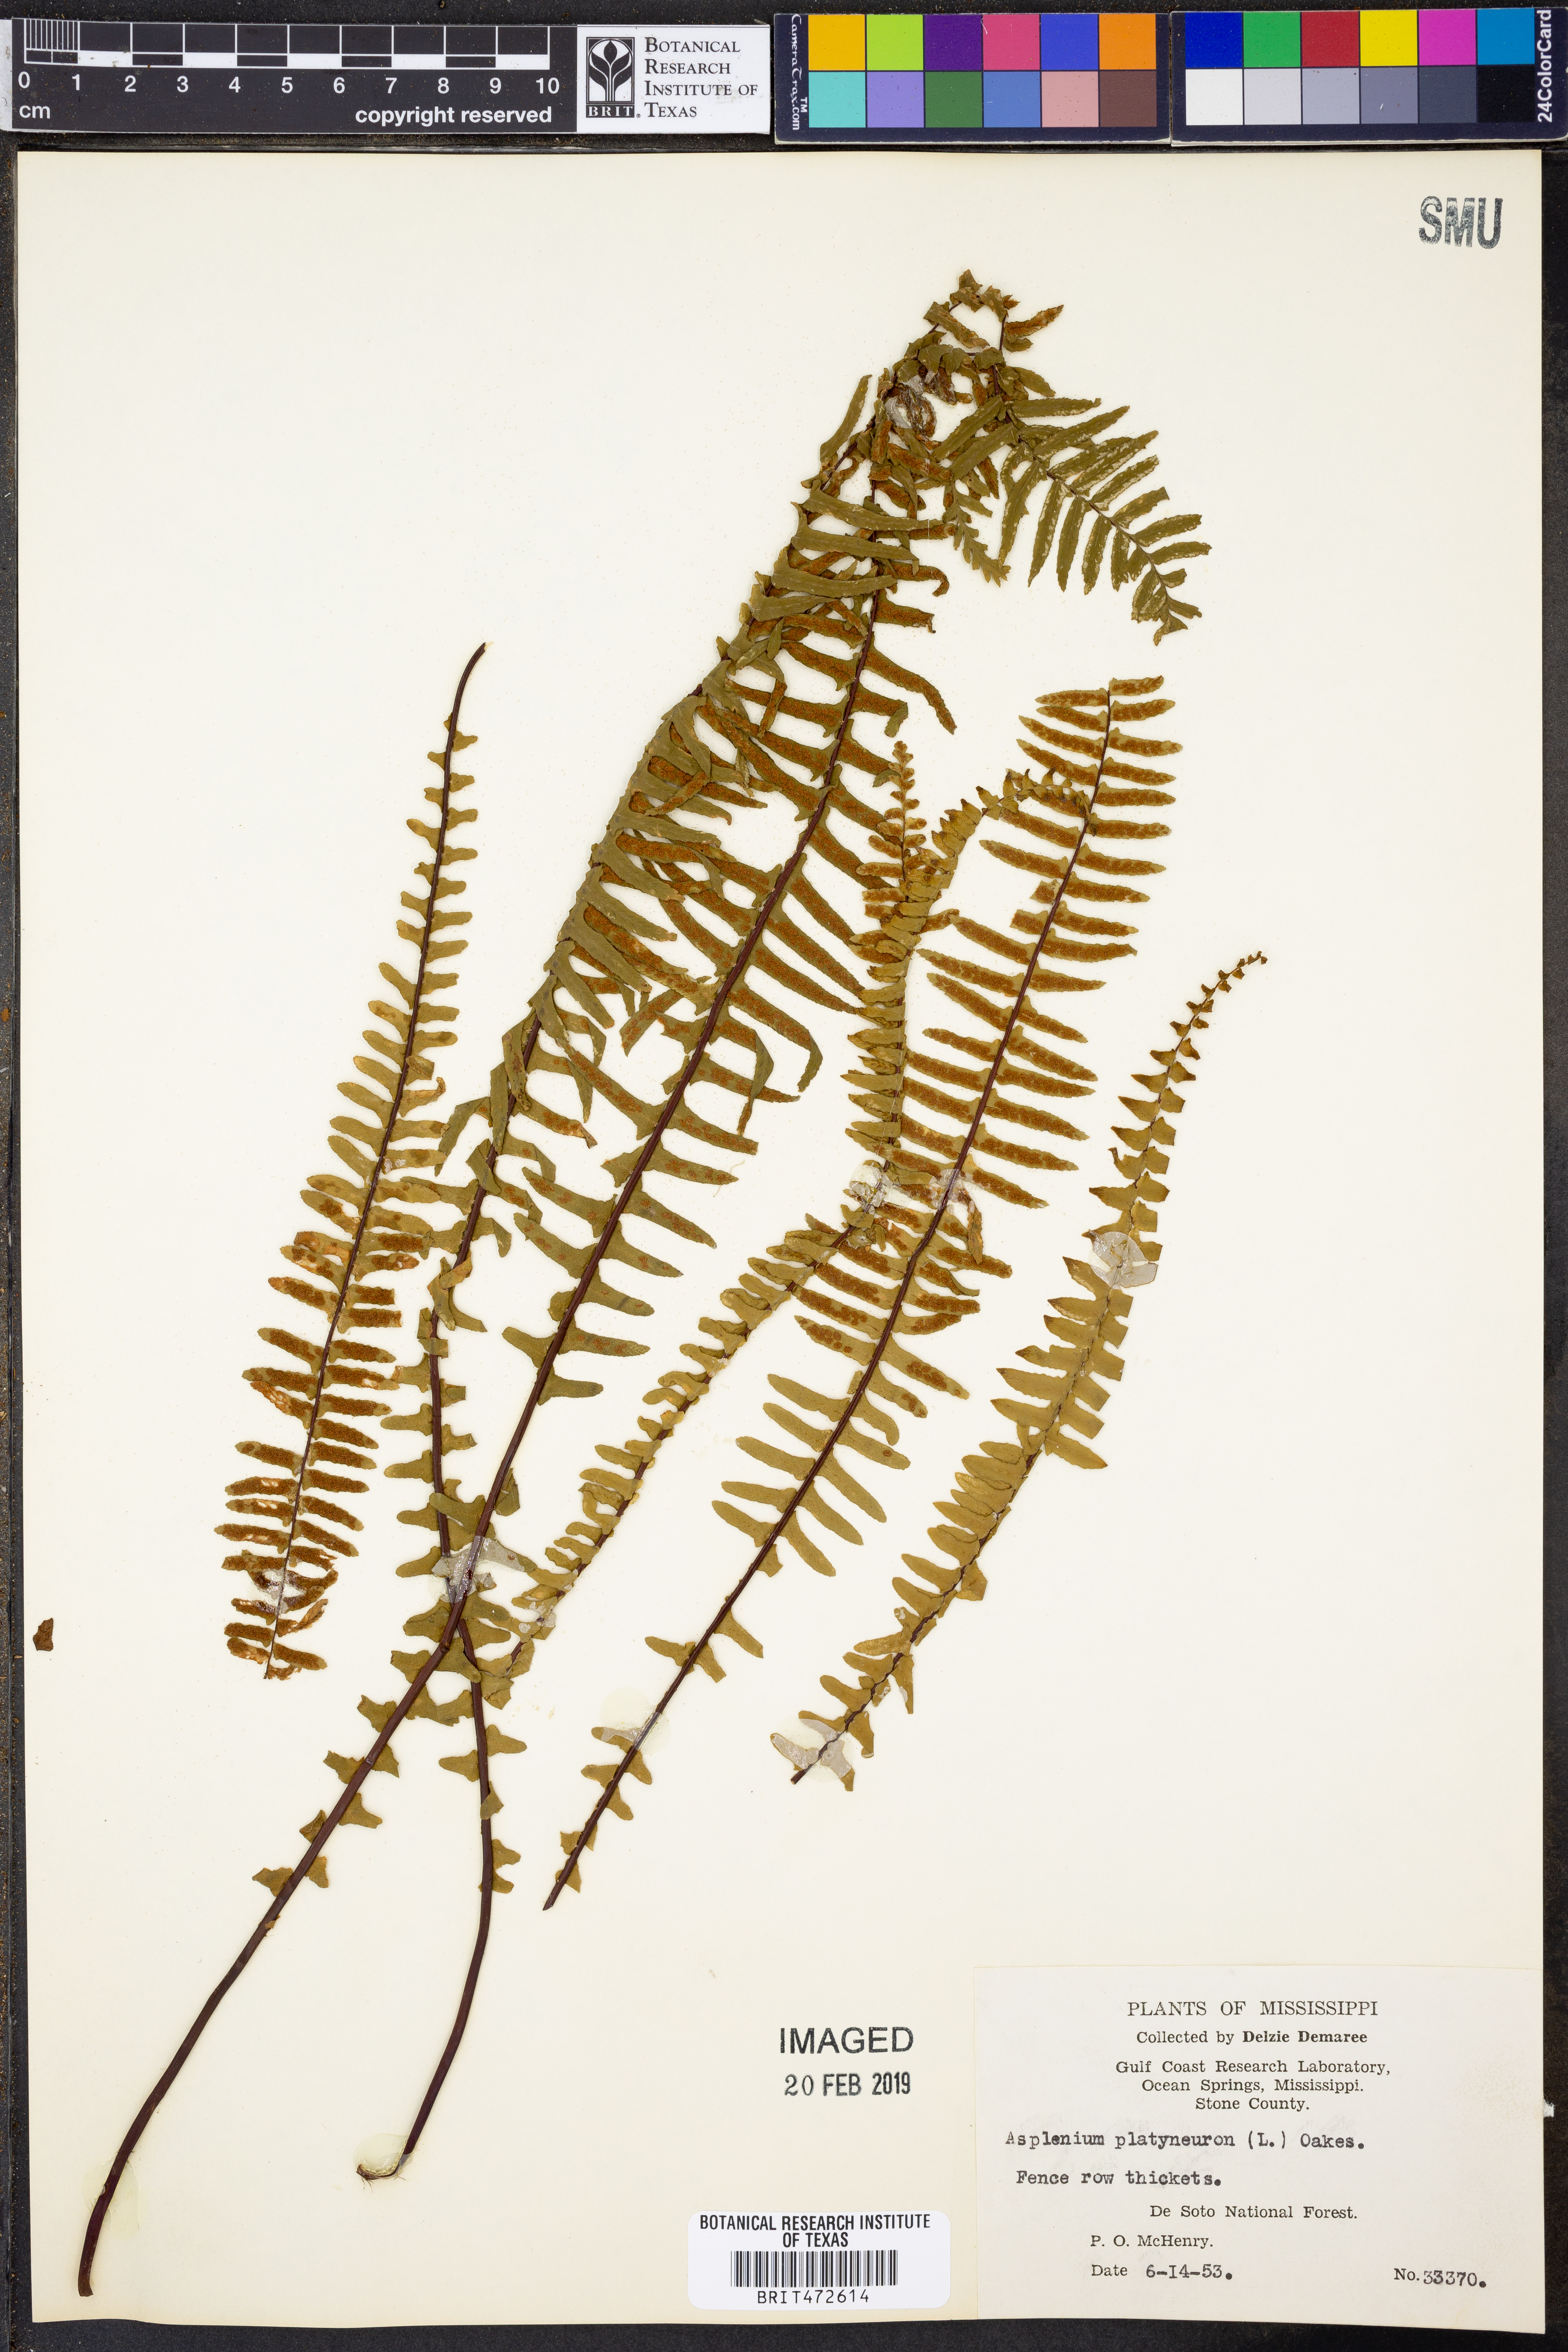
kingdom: Plantae
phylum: Tracheophyta
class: Polypodiopsida
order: Polypodiales
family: Aspleniaceae
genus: Asplenium
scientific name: Asplenium platyneuron
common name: Ebony spleenwort
